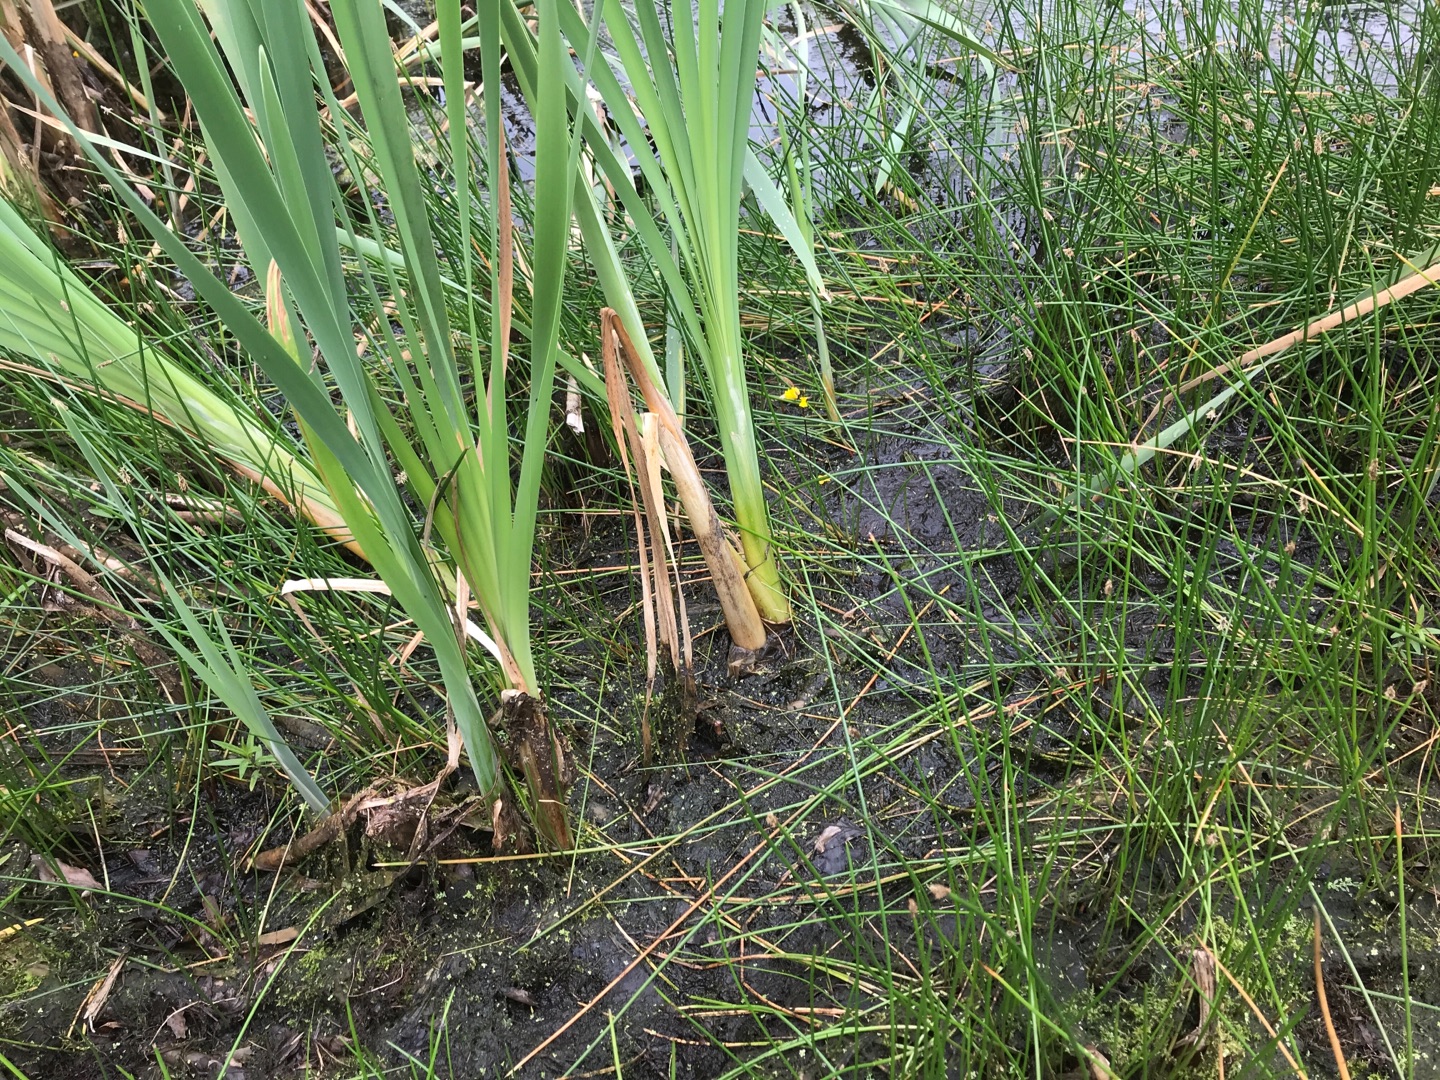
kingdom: Plantae
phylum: Tracheophyta
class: Magnoliopsida
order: Lamiales
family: Lentibulariaceae
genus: Utricularia
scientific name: Utricularia vulgaris
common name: Almindelig blærerod
